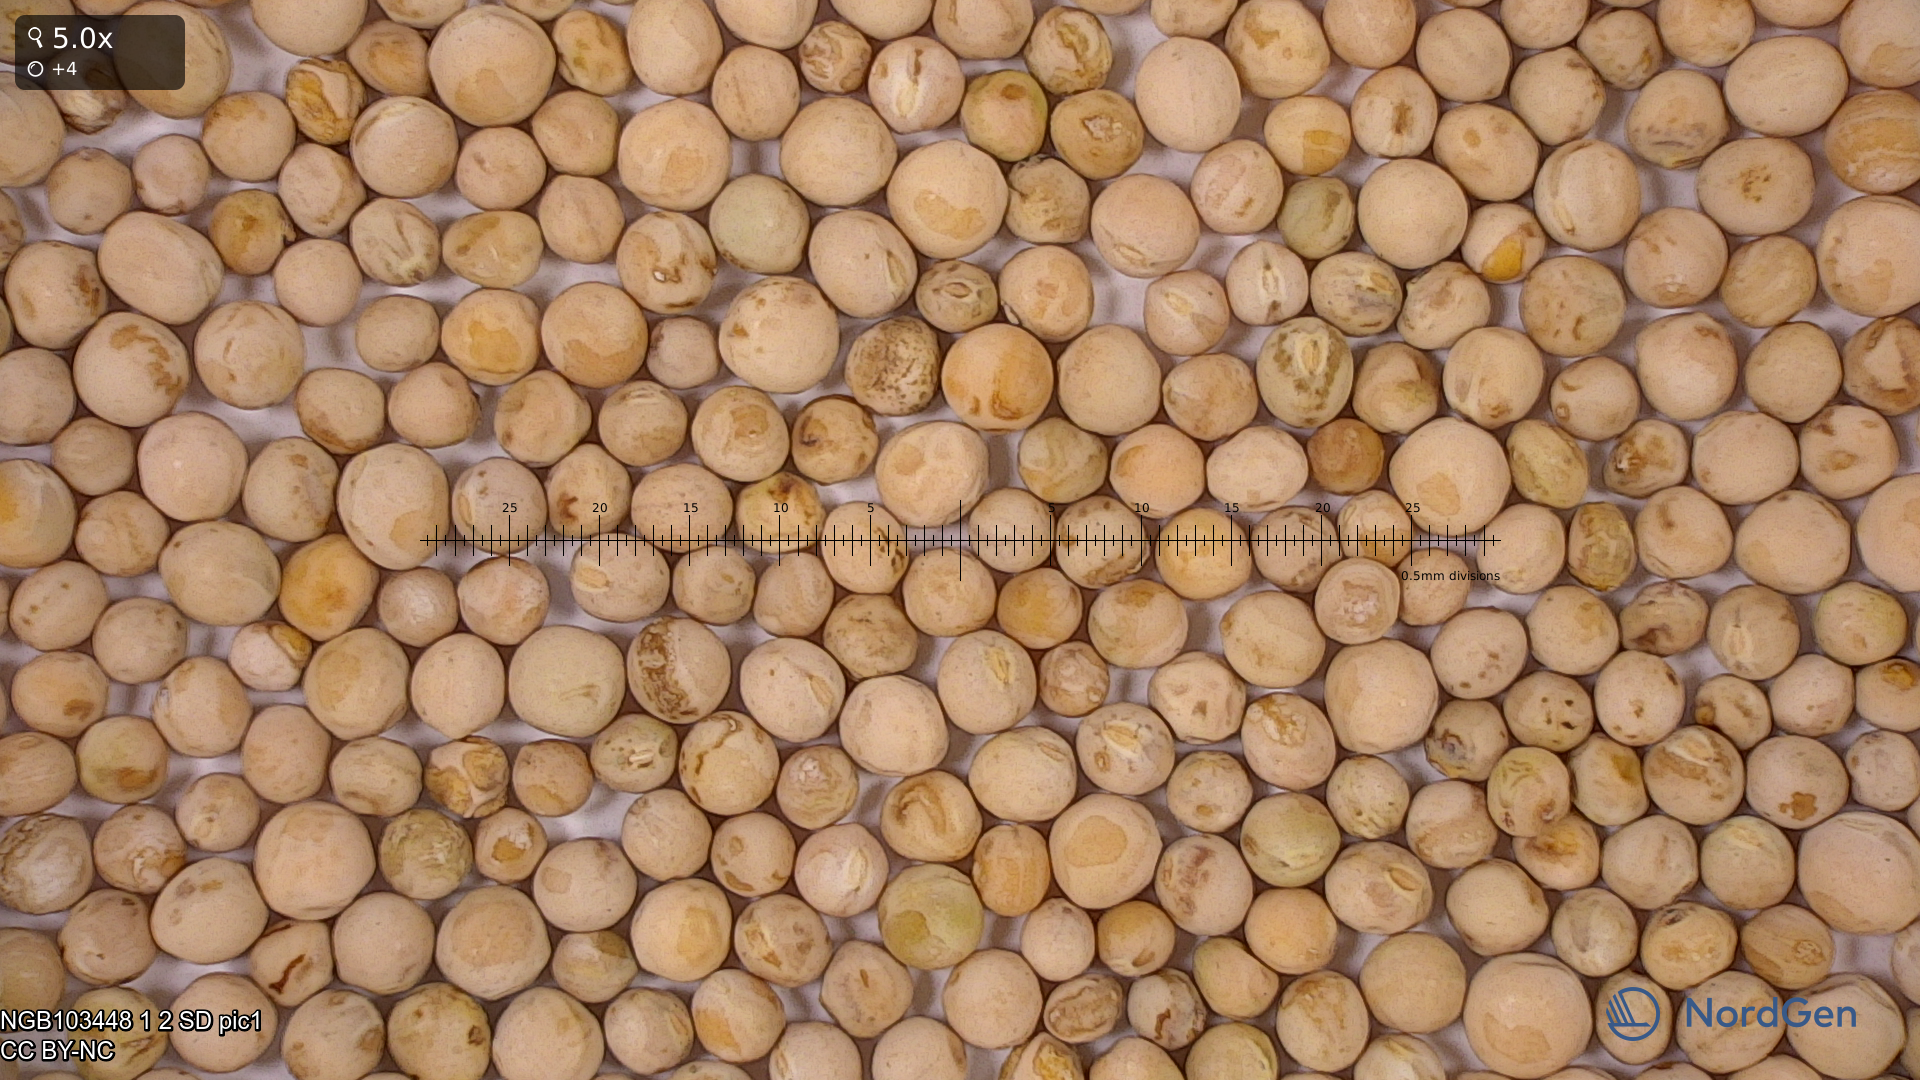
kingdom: Plantae
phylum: Tracheophyta
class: Magnoliopsida
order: Fabales
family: Fabaceae
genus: Lathyrus
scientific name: Lathyrus oleraceus
